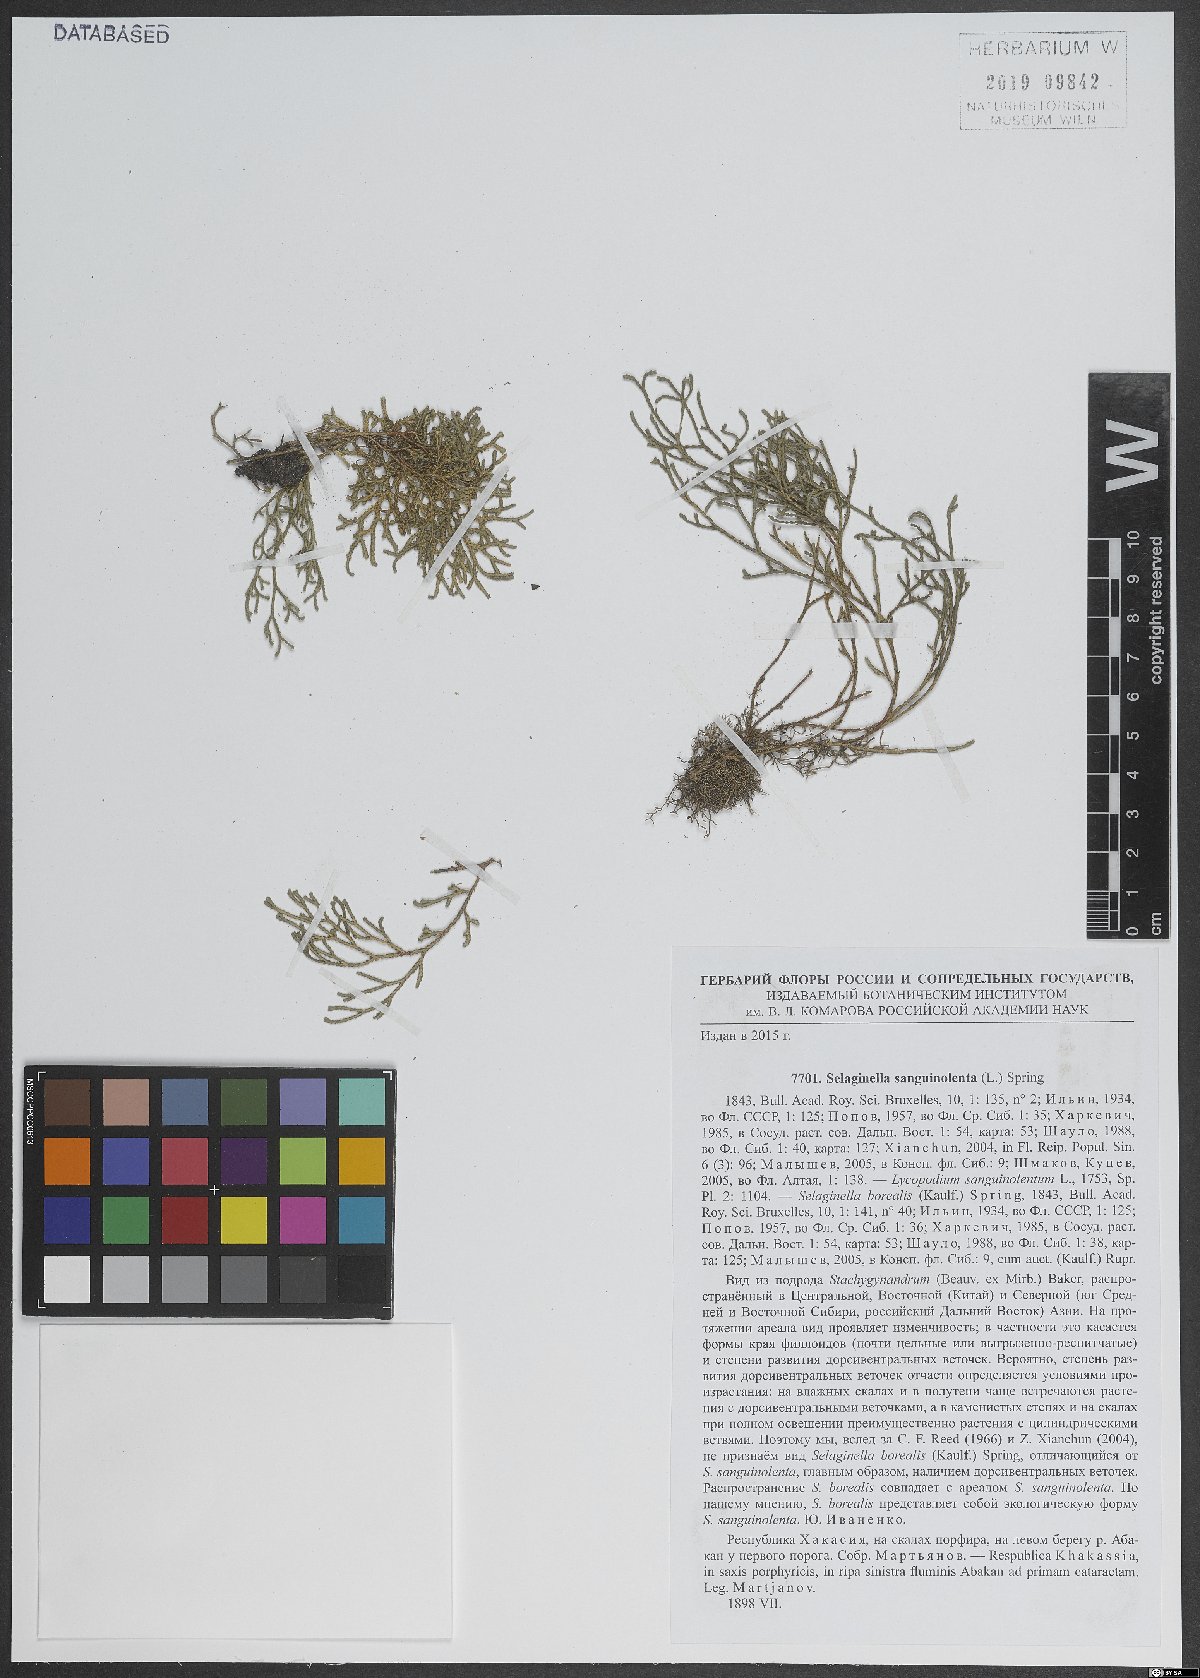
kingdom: Plantae
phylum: Tracheophyta
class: Lycopodiopsida
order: Selaginellales
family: Selaginellaceae
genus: Selaginella
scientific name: Selaginella sanguinolenta
